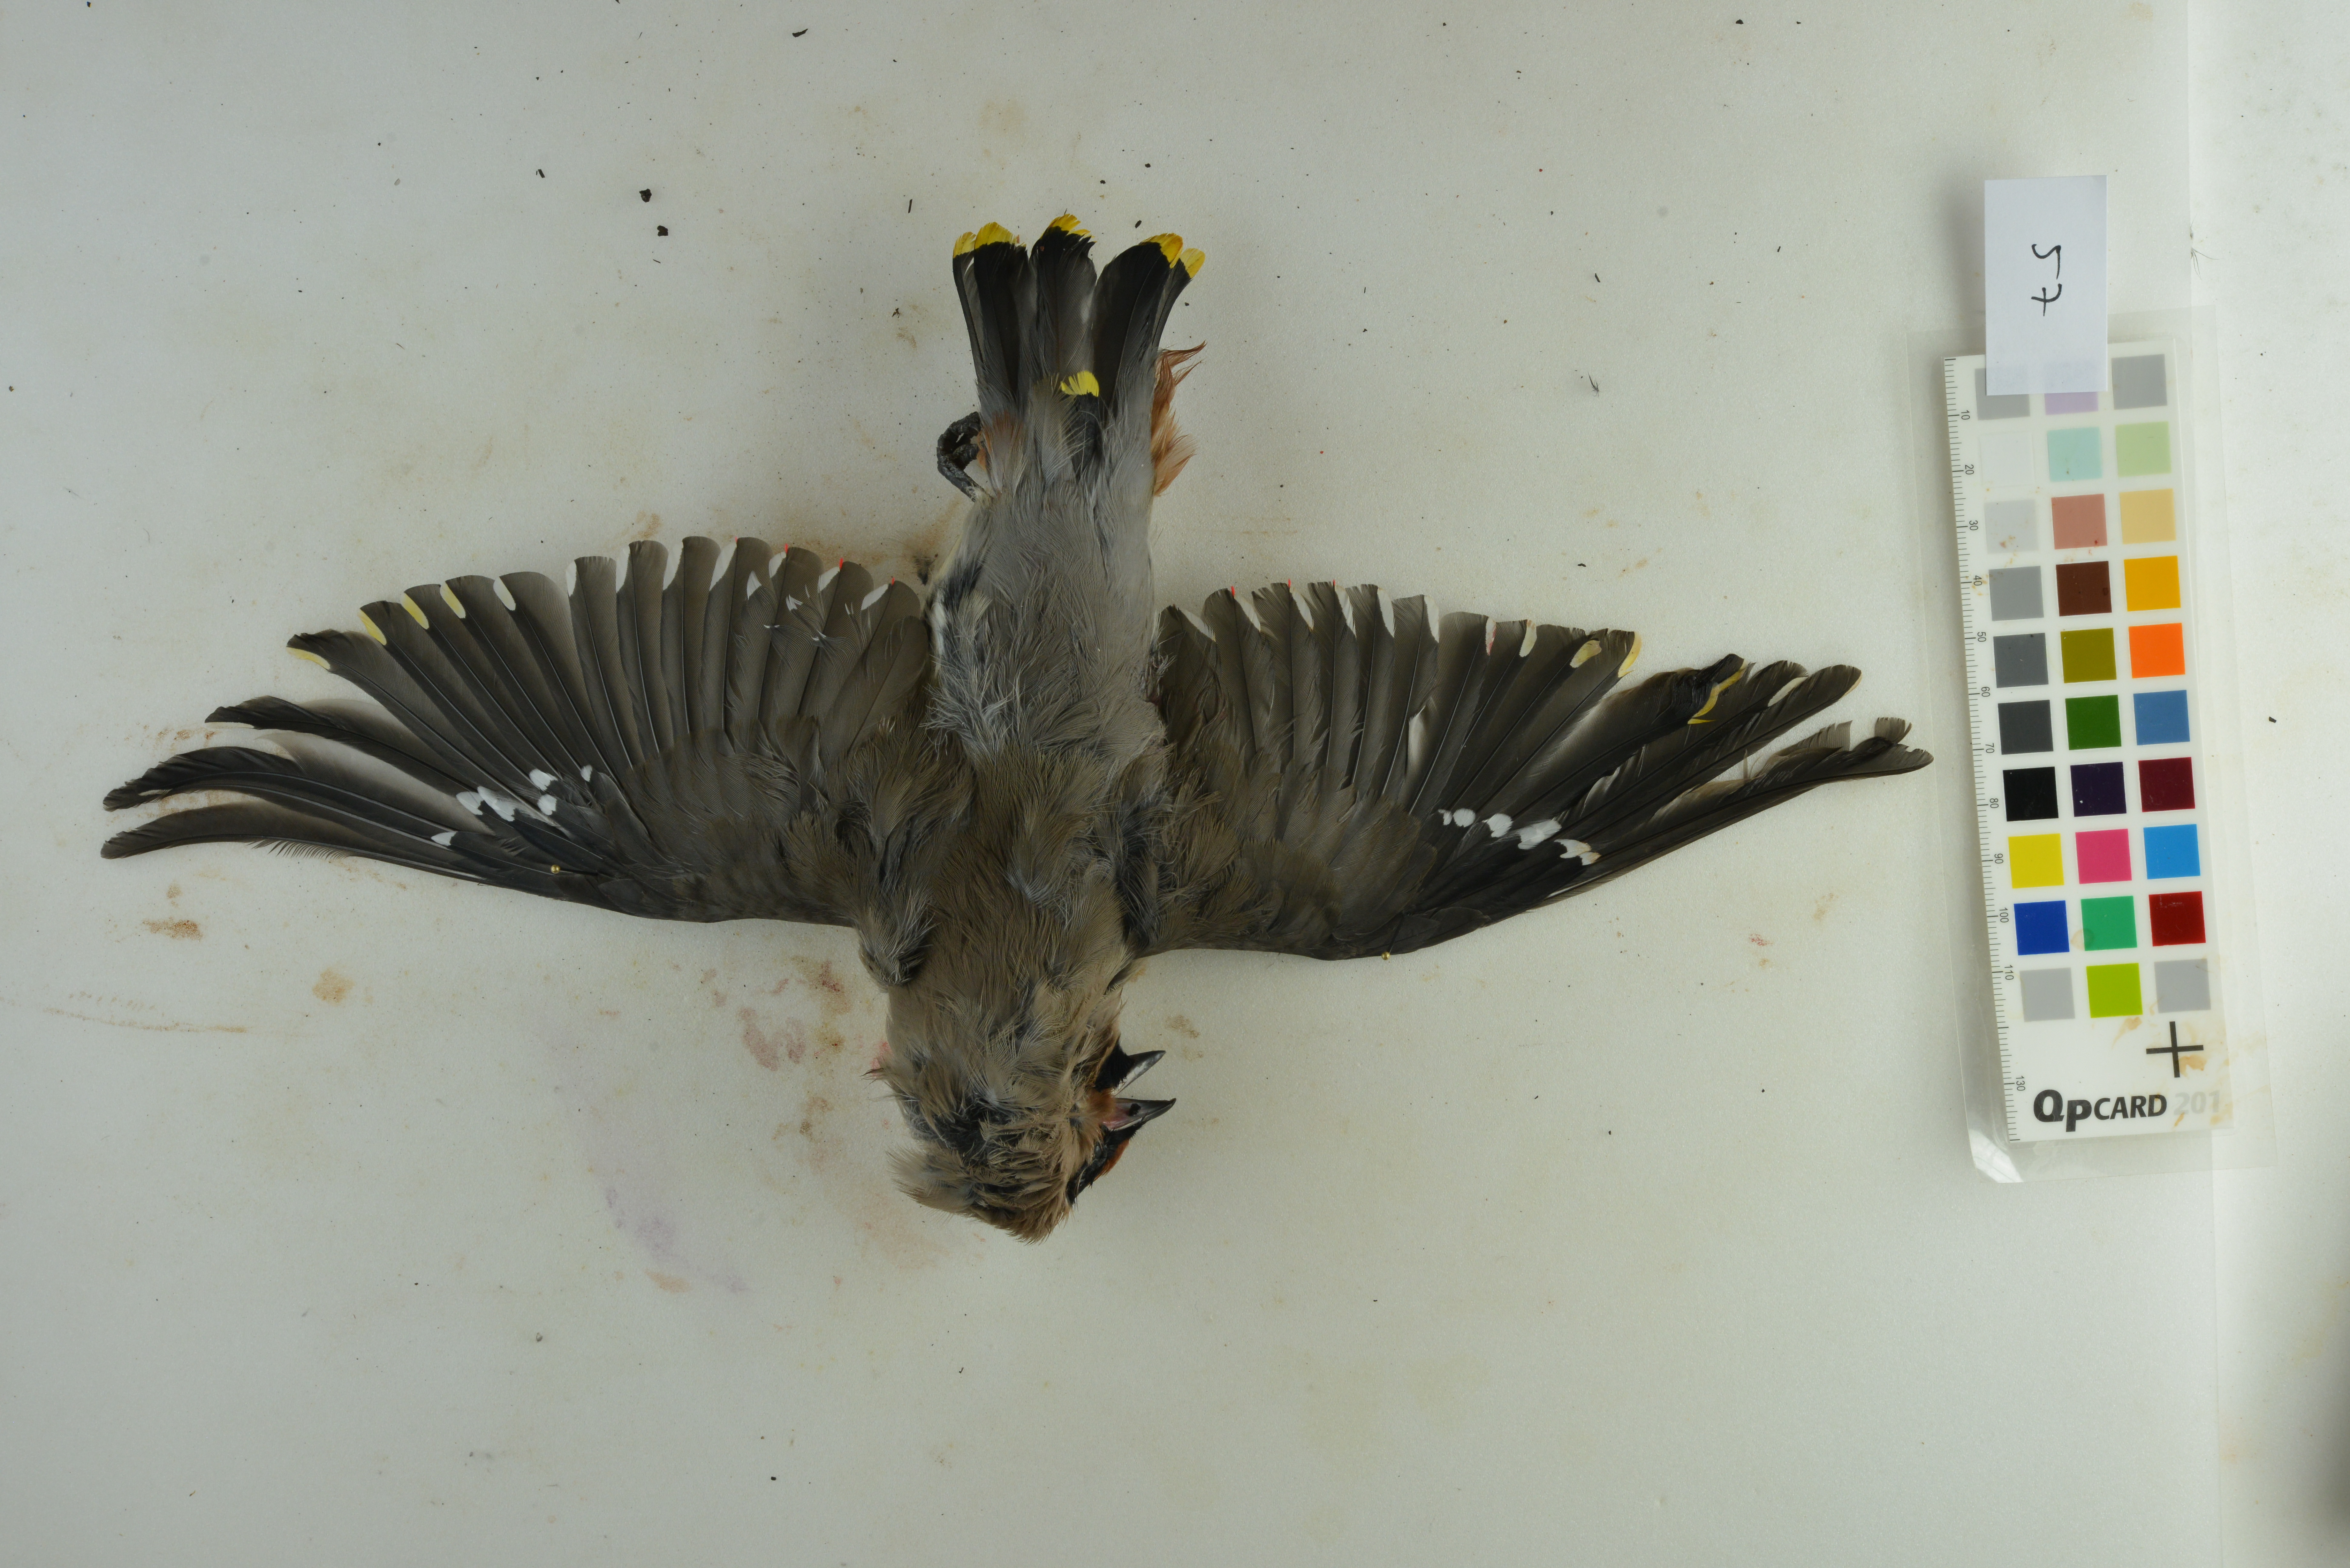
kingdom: Animalia
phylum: Chordata
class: Aves
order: Passeriformes
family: Bombycillidae
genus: Bombycilla
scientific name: Bombycilla garrulus
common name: Bohemian waxwing
